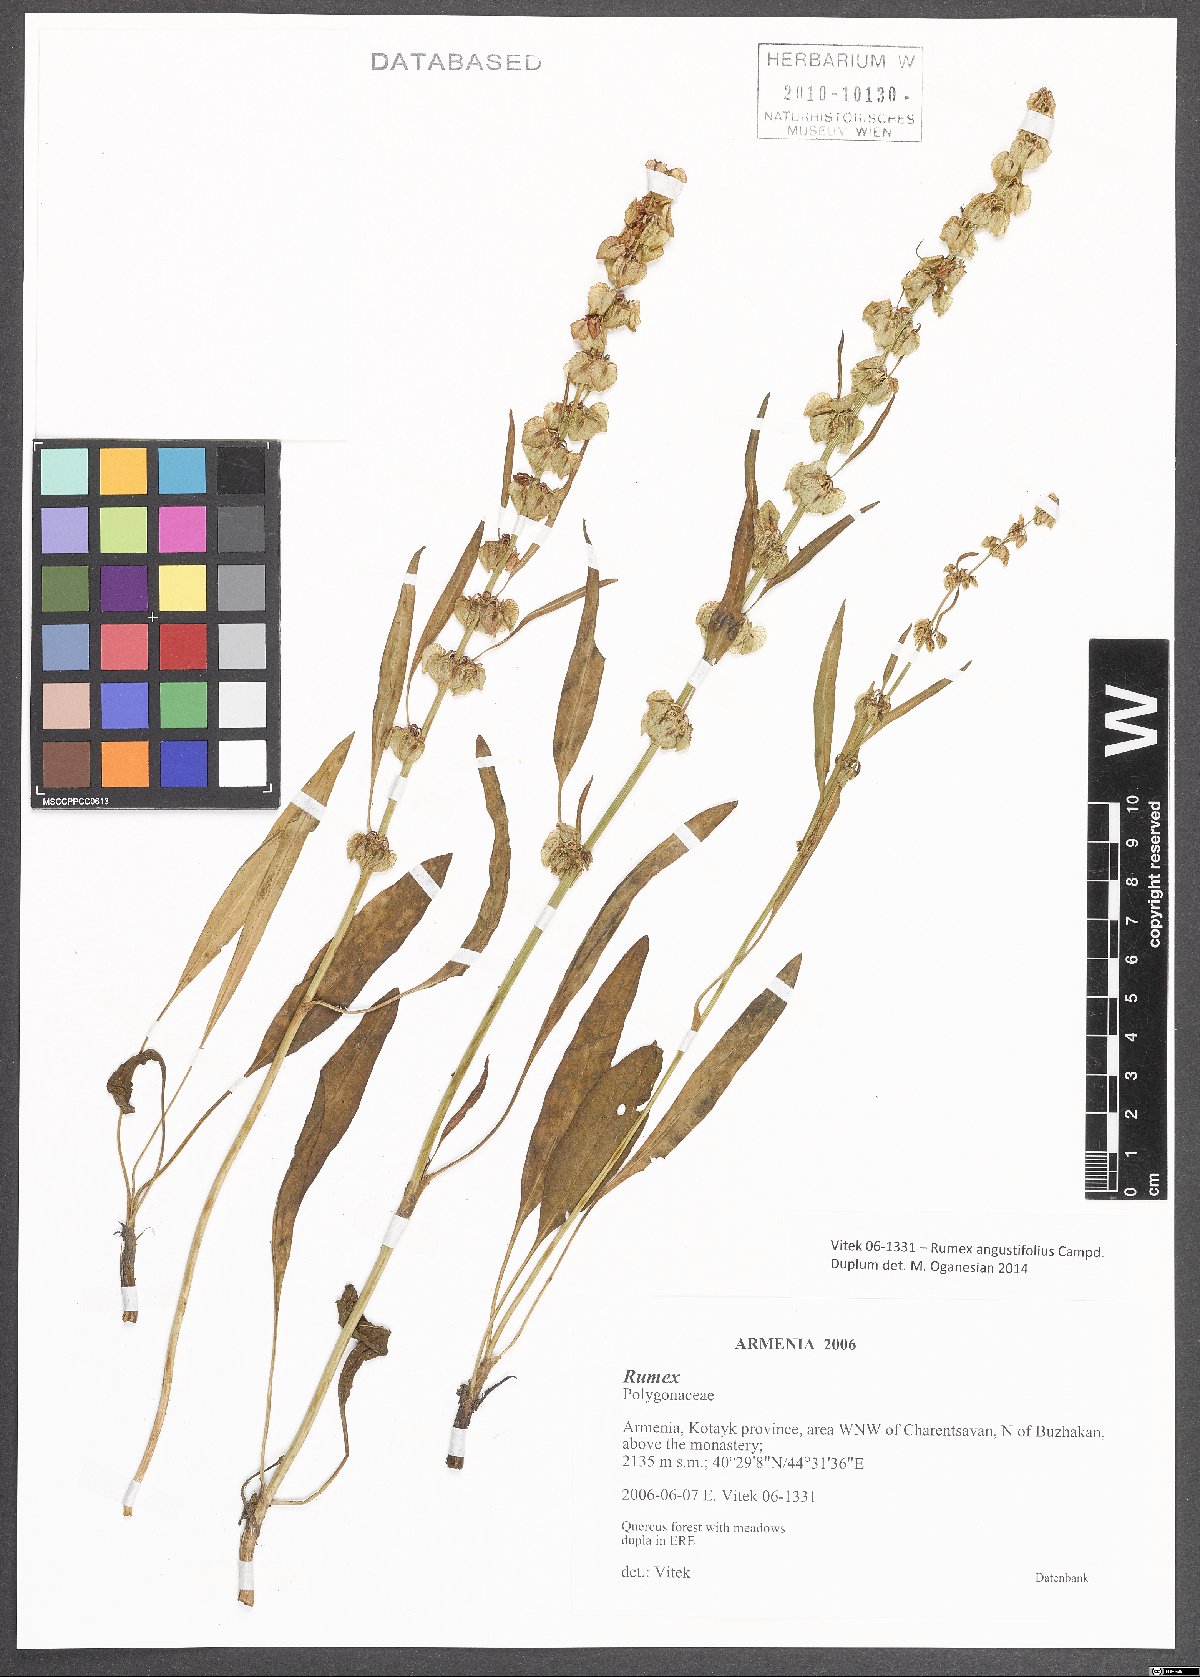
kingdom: Plantae
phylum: Tracheophyta
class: Magnoliopsida
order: Caryophyllales
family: Polygonaceae
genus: Rumex
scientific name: Rumex angustifolius
